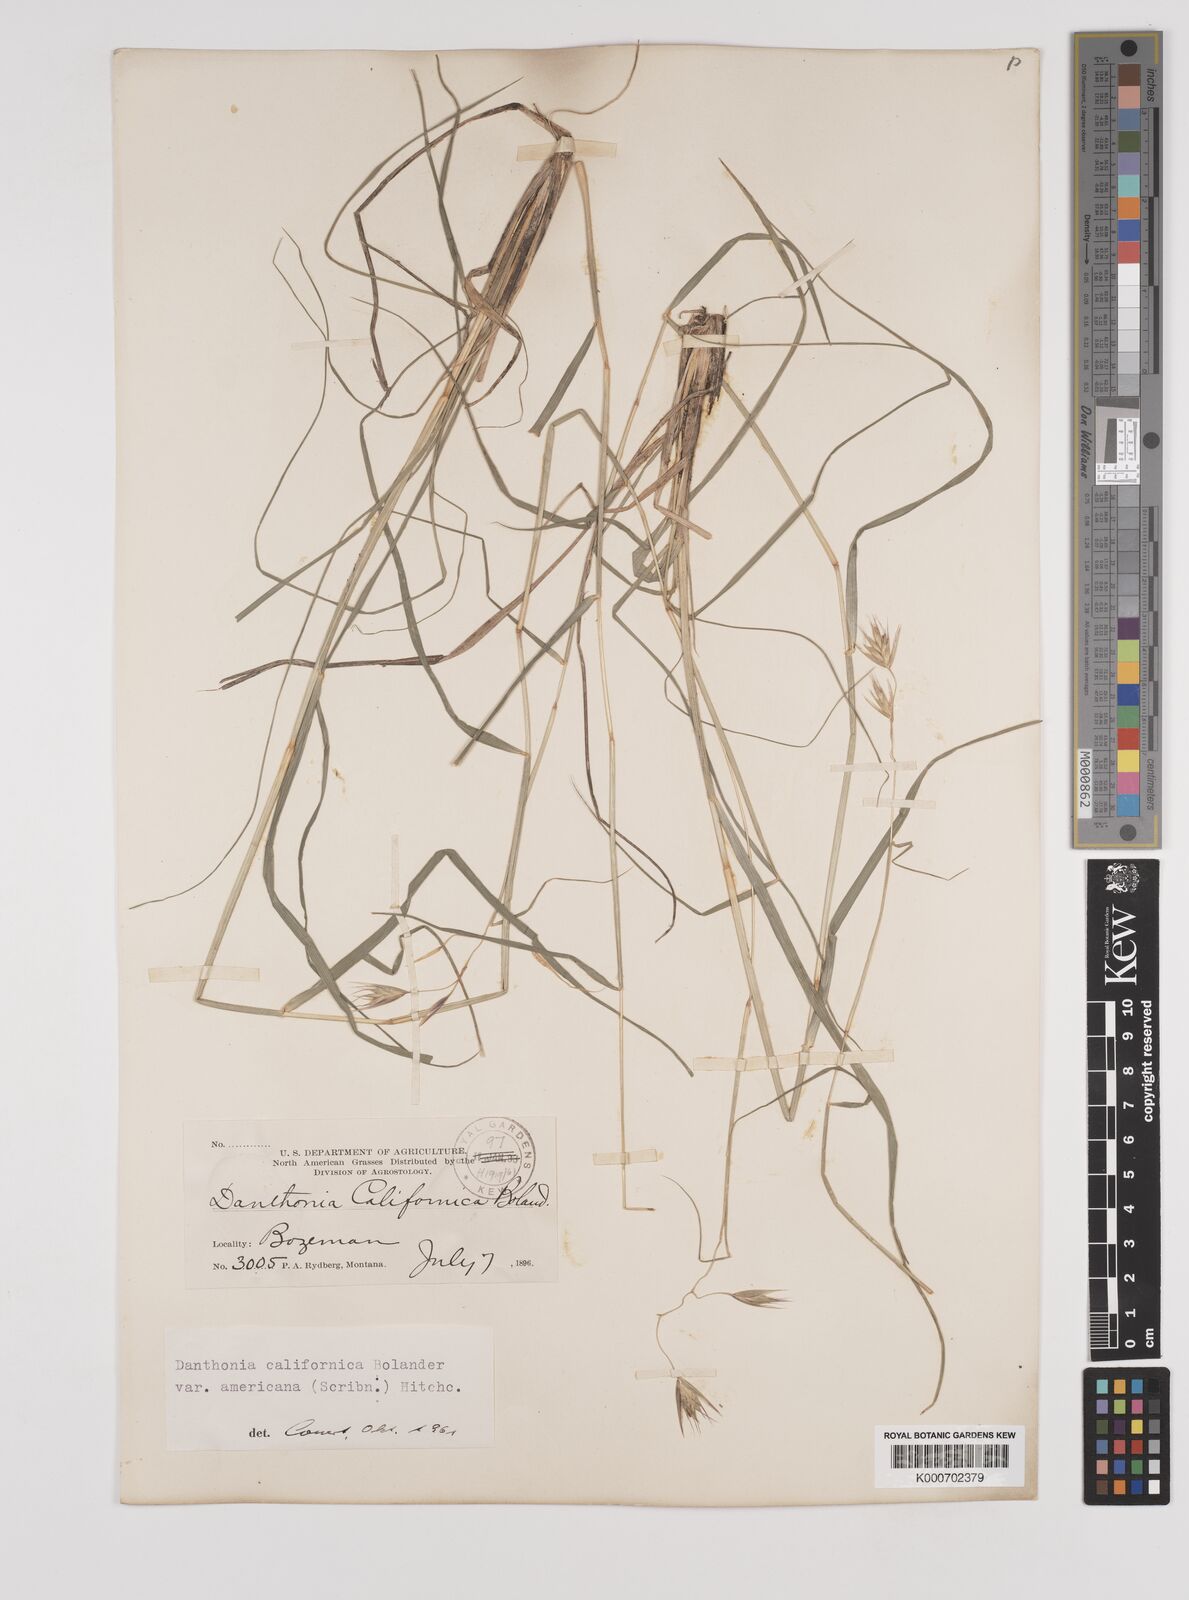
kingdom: Plantae
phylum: Tracheophyta
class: Liliopsida
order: Poales
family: Poaceae
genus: Danthonia
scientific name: Danthonia californica
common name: California oat grass
